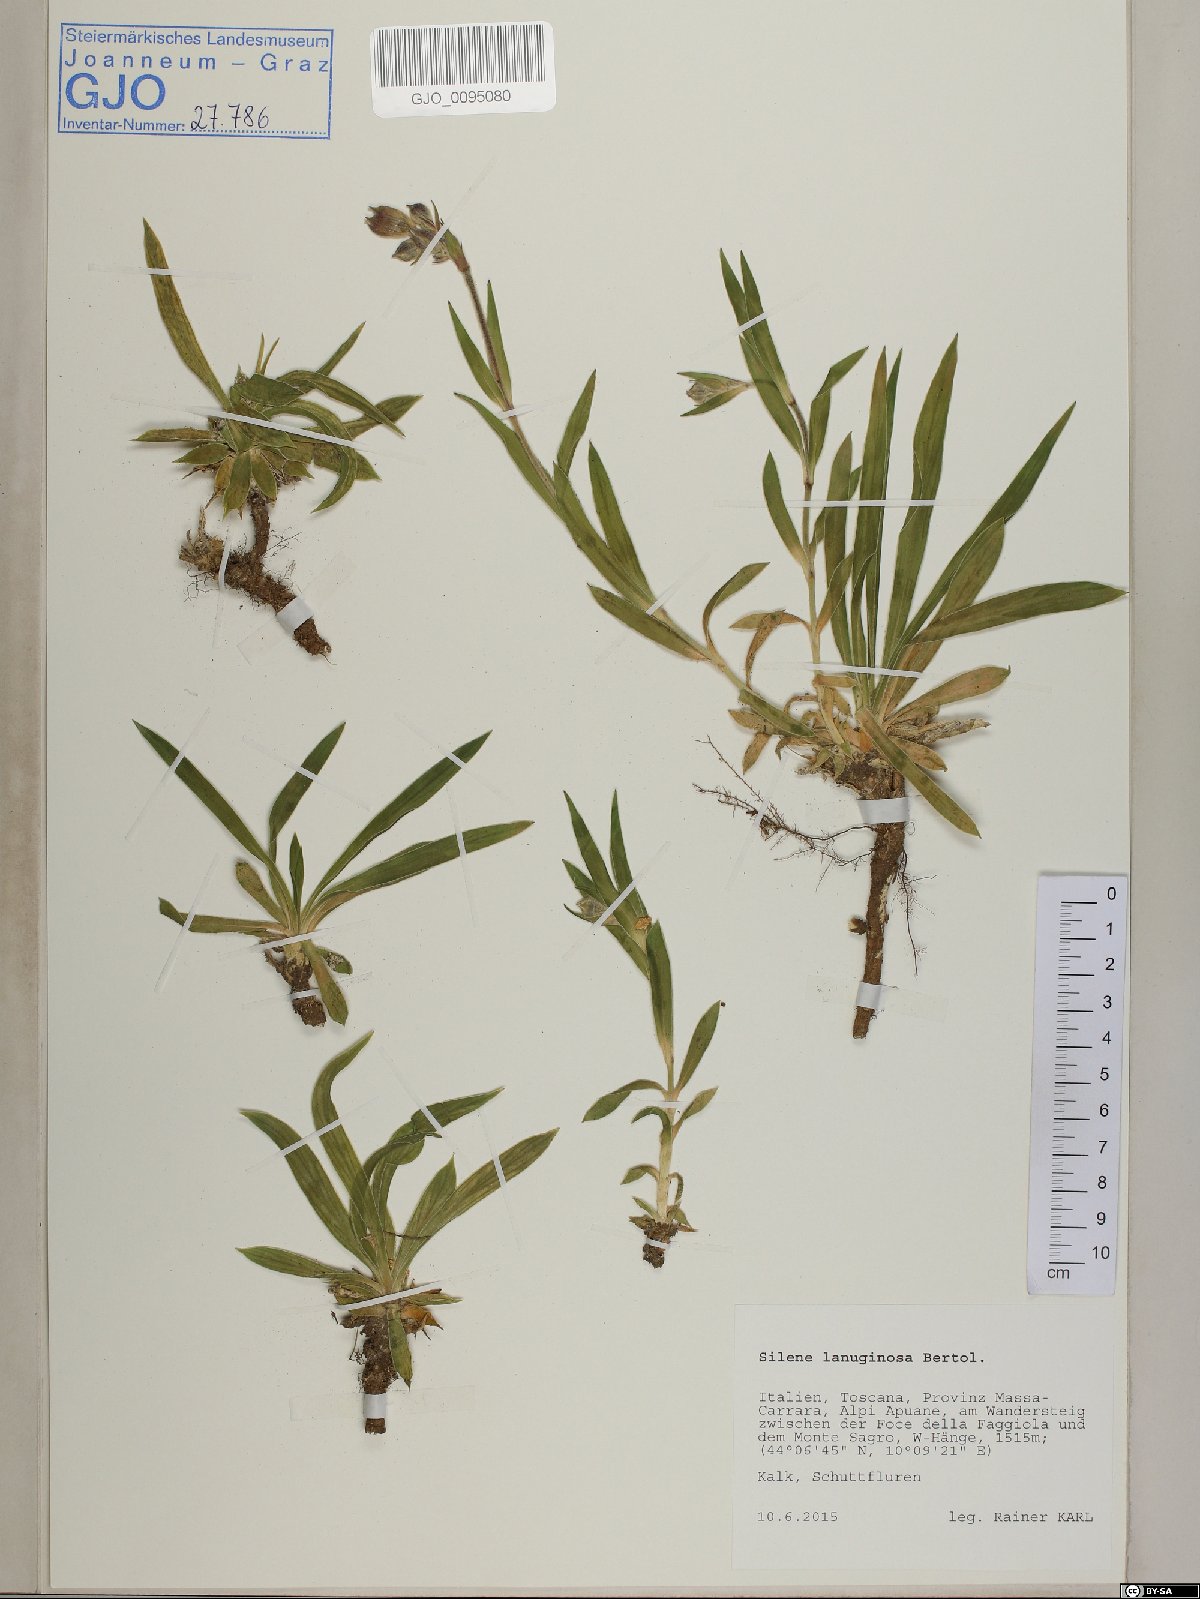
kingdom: Plantae
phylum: Tracheophyta
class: Magnoliopsida
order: Caryophyllales
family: Caryophyllaceae
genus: Silene
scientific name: Silene auriculata
